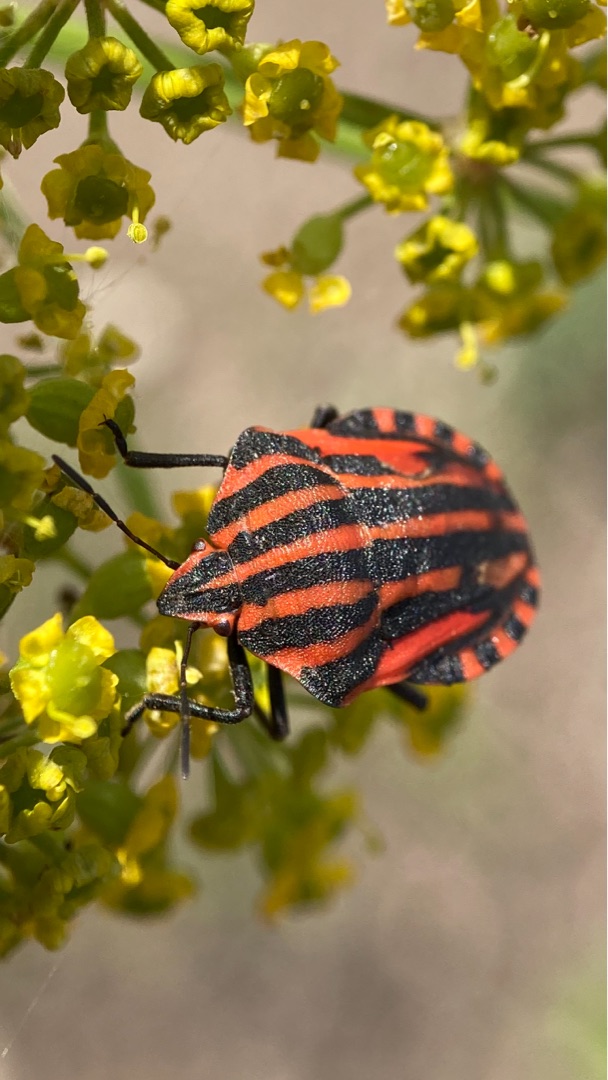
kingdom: Animalia
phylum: Arthropoda
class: Insecta
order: Hemiptera
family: Pentatomidae
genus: Graphosoma
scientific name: Graphosoma italicum
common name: Stribetæge
